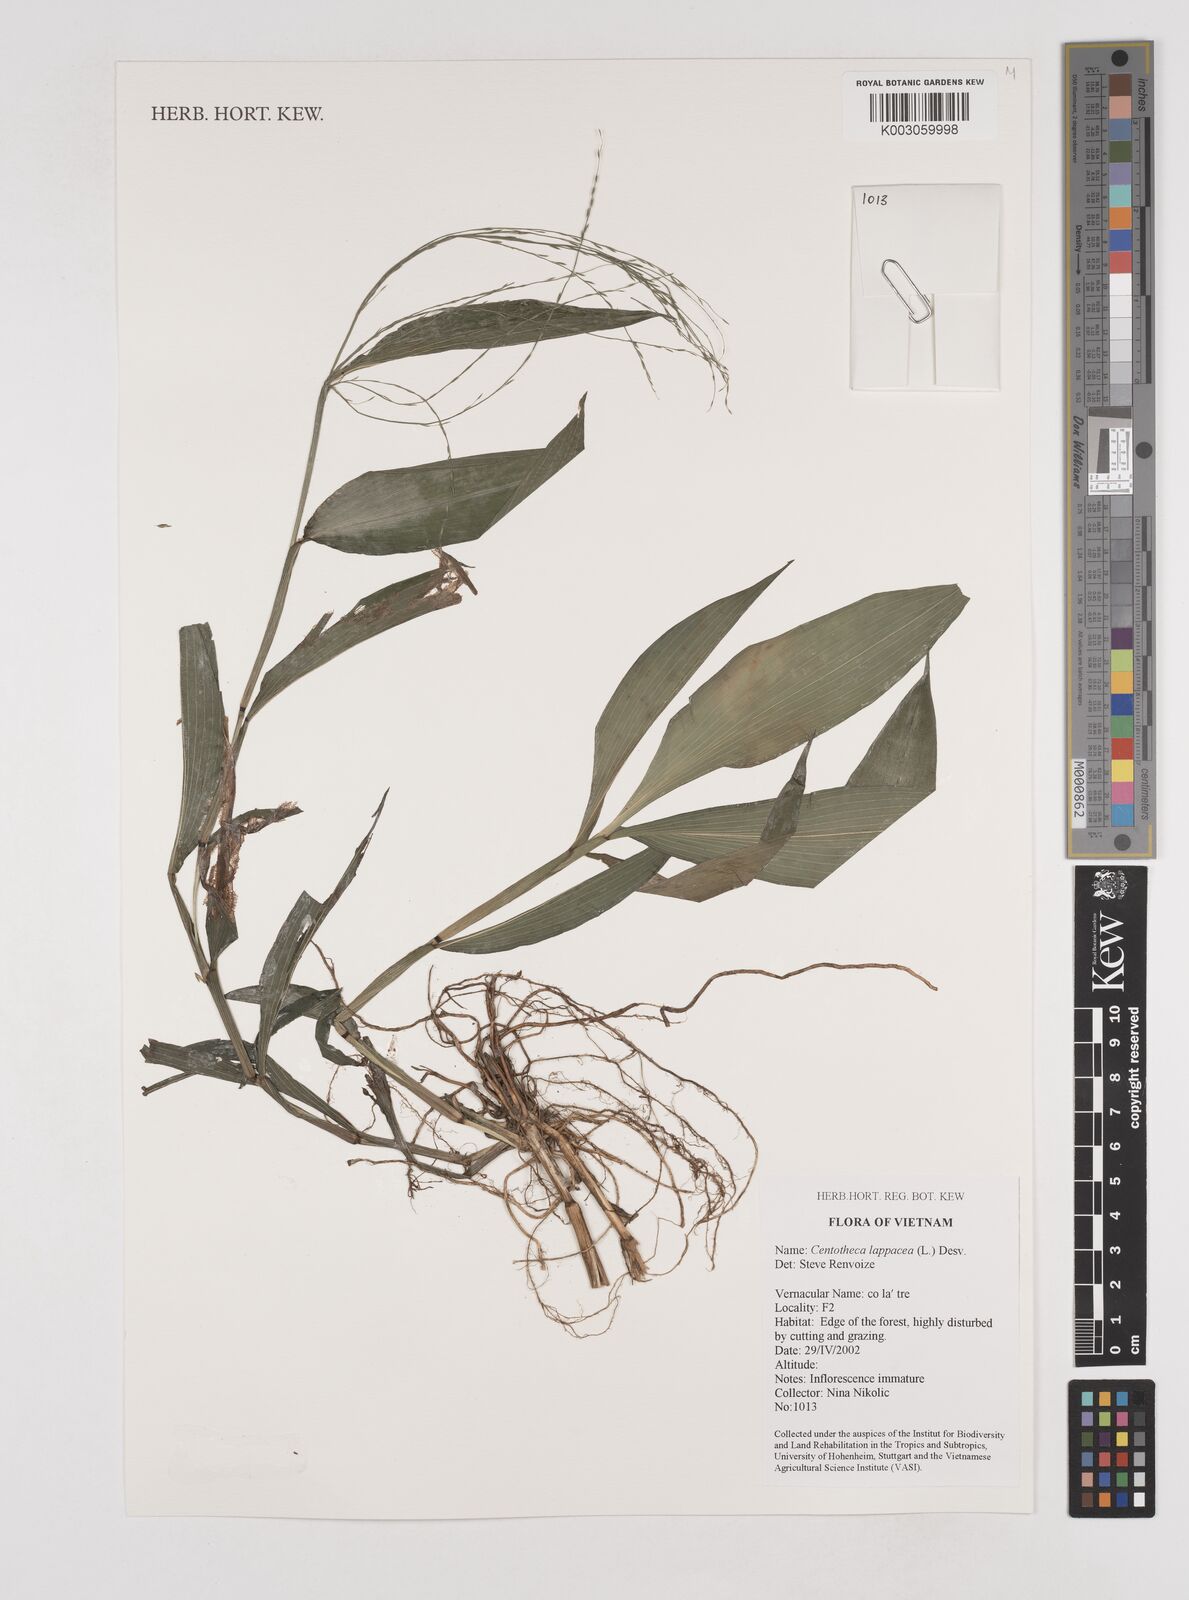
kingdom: Plantae
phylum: Tracheophyta
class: Liliopsida
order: Poales
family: Poaceae
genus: Centotheca
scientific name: Centotheca lappacea
